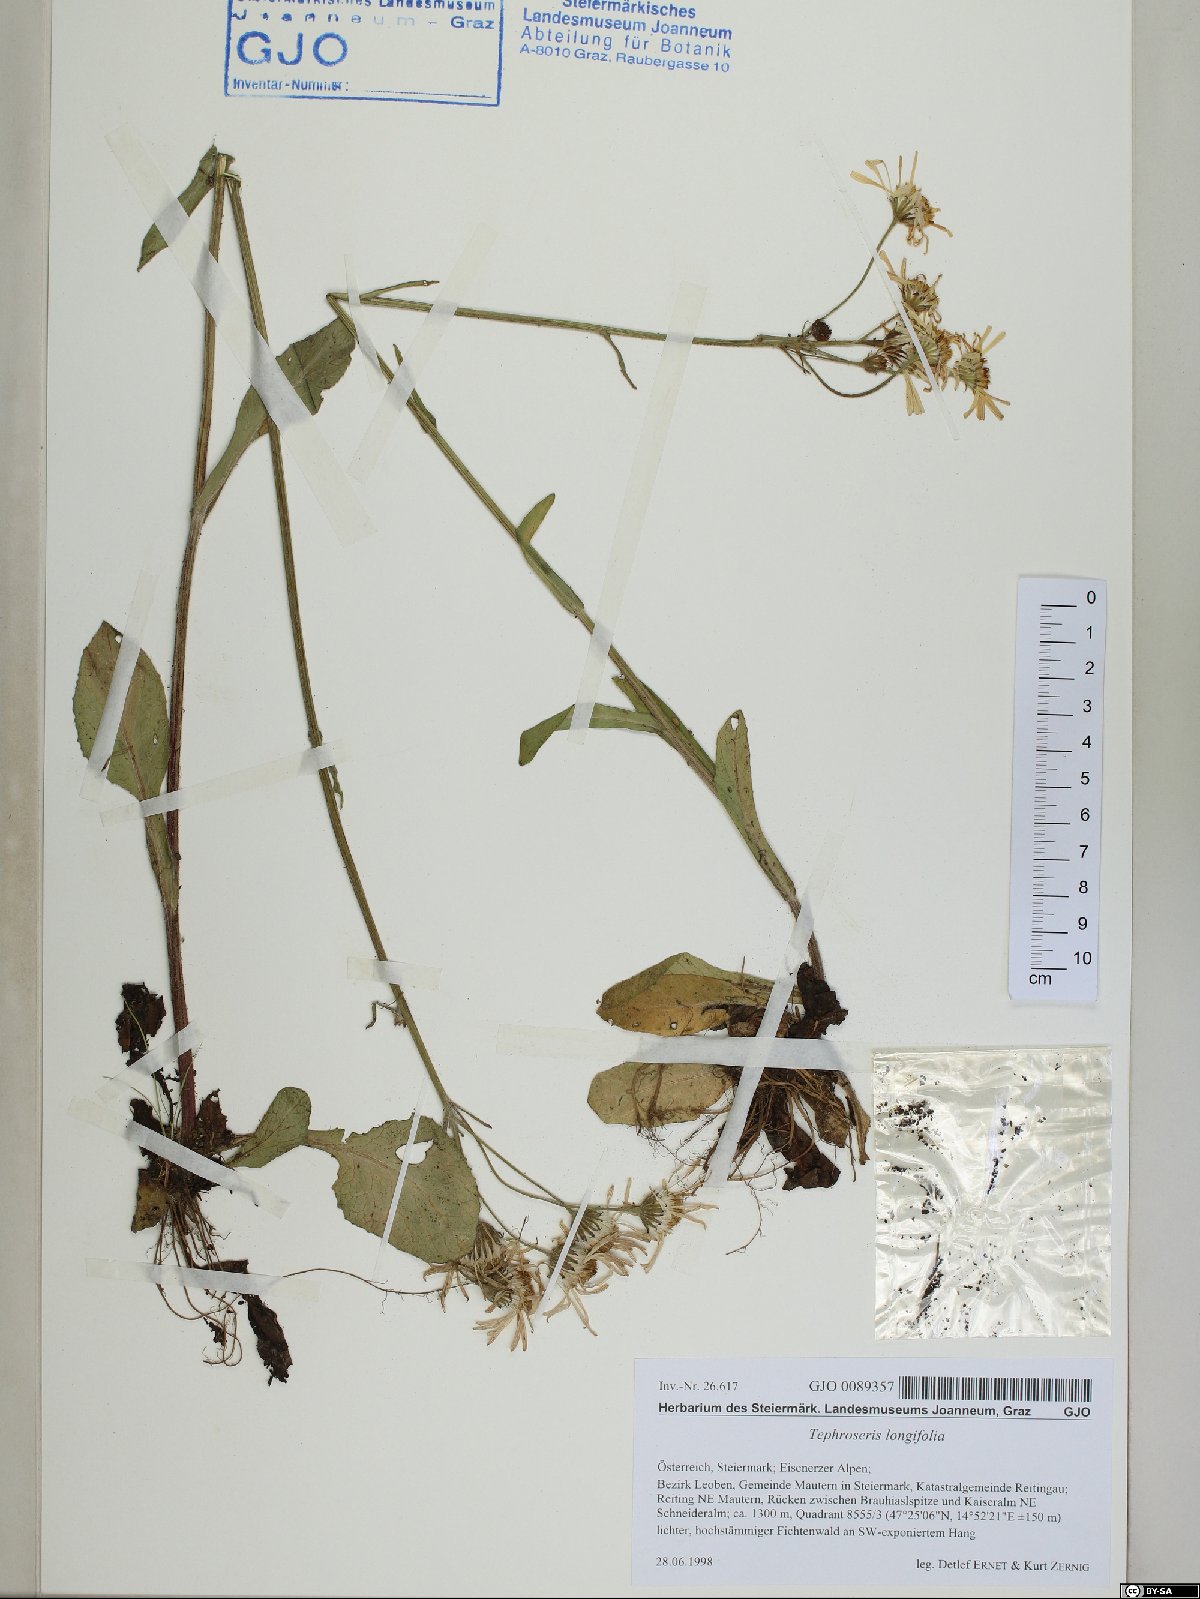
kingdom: Plantae
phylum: Tracheophyta
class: Magnoliopsida
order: Asterales
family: Asteraceae
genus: Tephroseris
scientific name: Tephroseris longifolia
